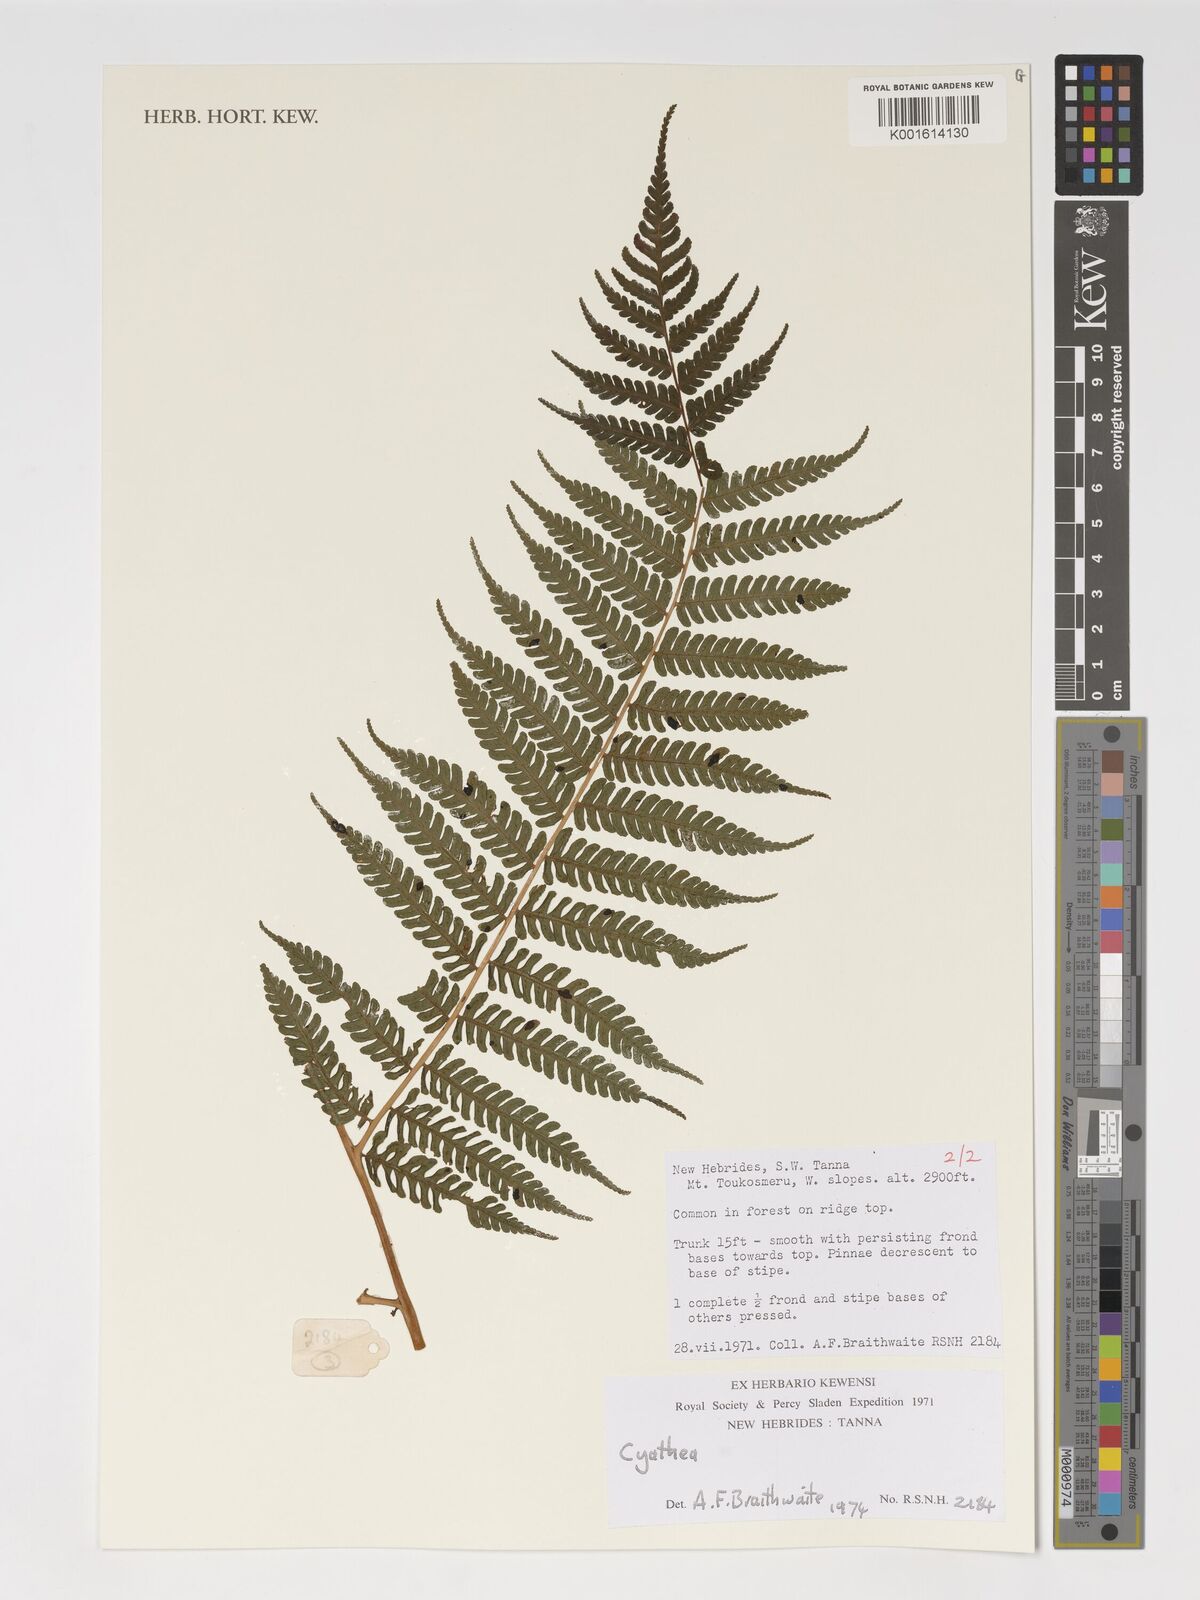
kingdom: Plantae
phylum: Tracheophyta
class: Polypodiopsida
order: Cyatheales
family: Cyatheaceae
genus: Cyathea
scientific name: Cyathea
